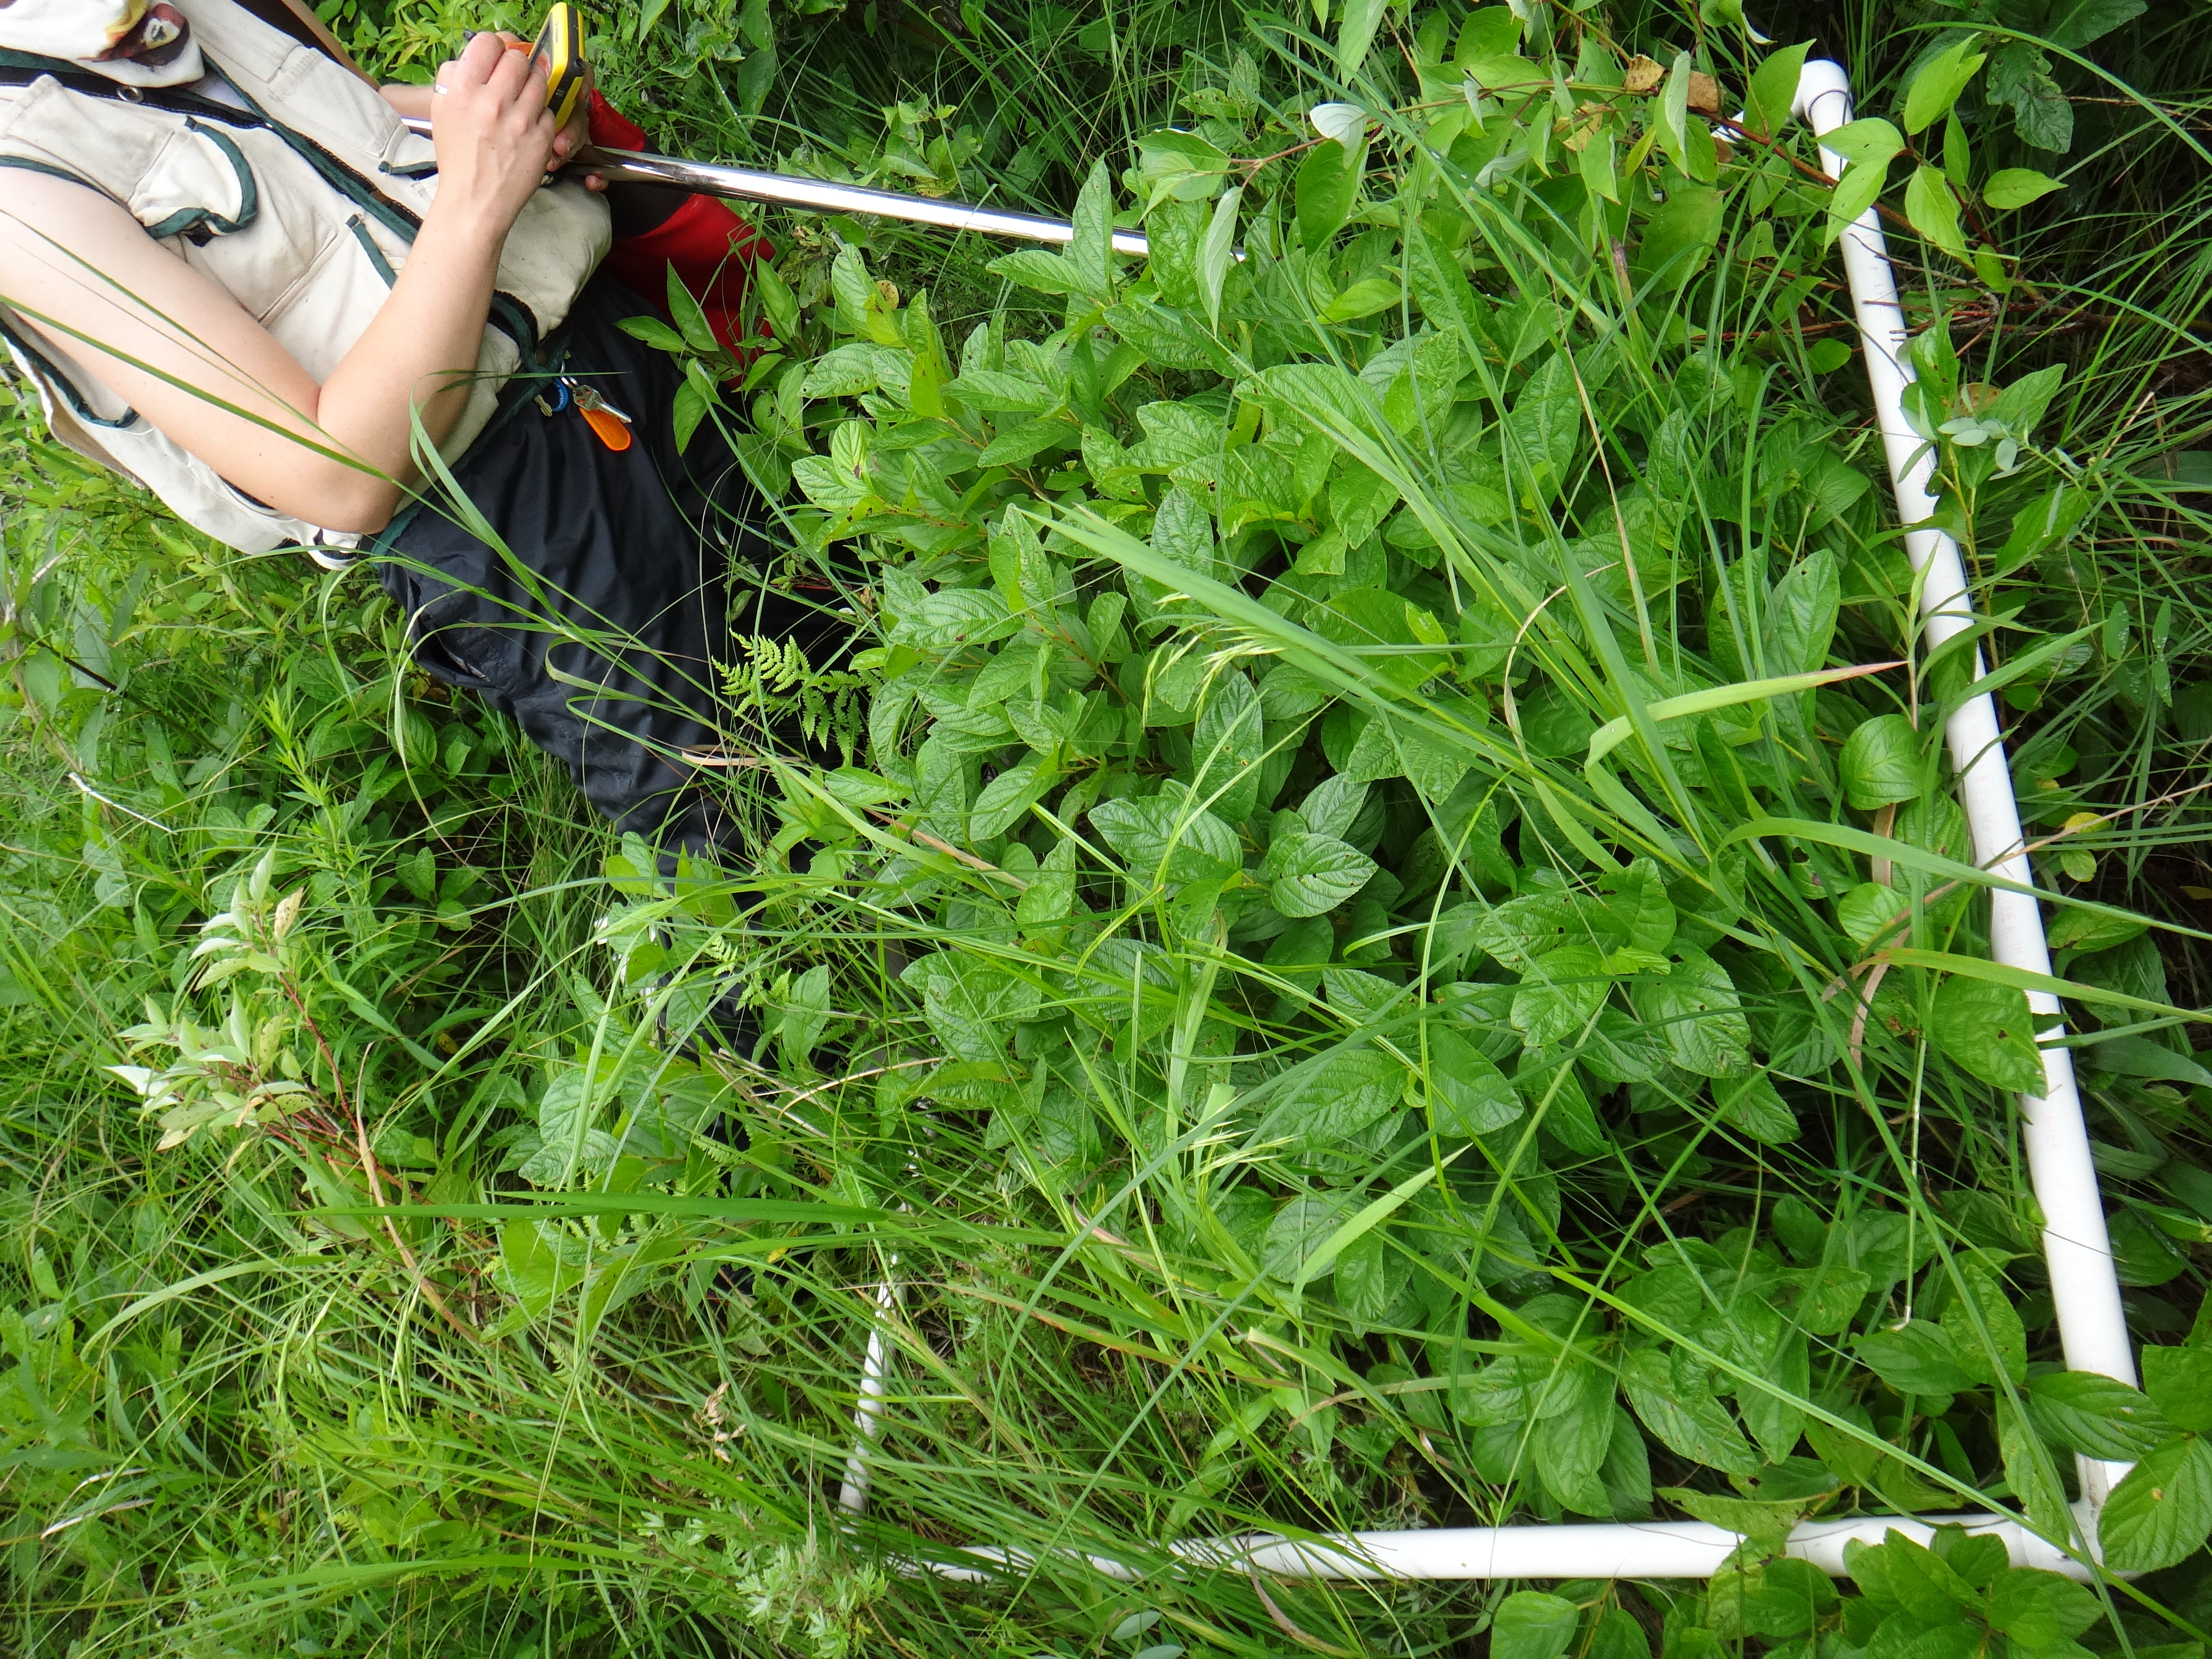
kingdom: Plantae
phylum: Tracheophyta
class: Magnoliopsida
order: Myrtales
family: Onagraceae
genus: Epilobium
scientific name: Epilobium densum
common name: Downy willowherb
